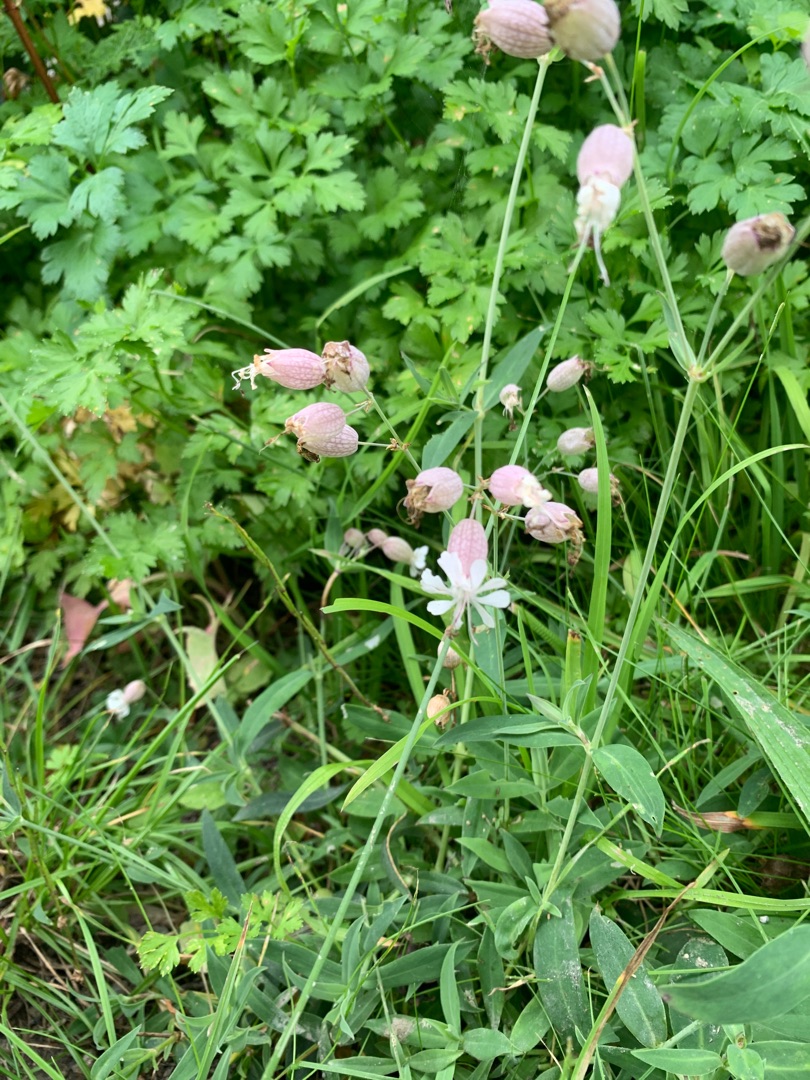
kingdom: Plantae
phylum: Tracheophyta
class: Magnoliopsida
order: Caryophyllales
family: Caryophyllaceae
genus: Silene
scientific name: Silene vulgaris
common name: Blæresmælde
